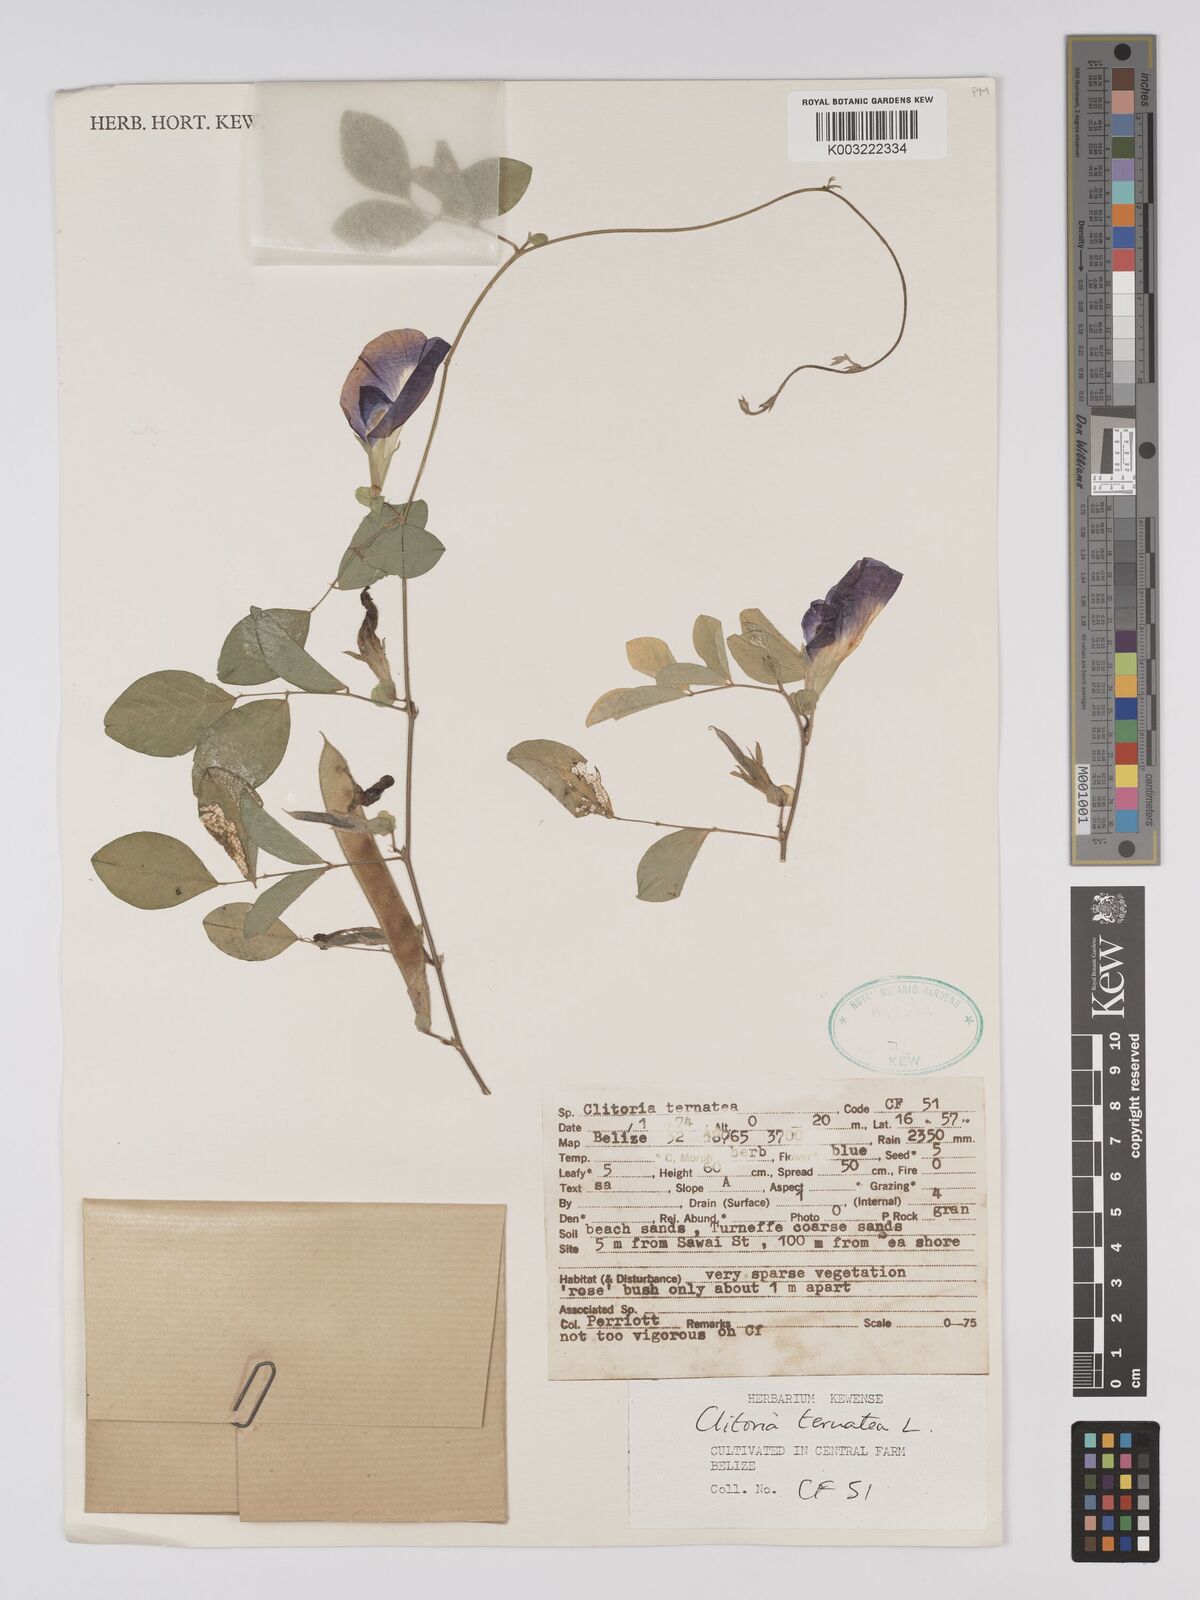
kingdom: Plantae
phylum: Tracheophyta
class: Magnoliopsida
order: Fabales
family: Fabaceae
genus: Clitoria
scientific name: Clitoria ternatea
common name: Asian pigeonwings
